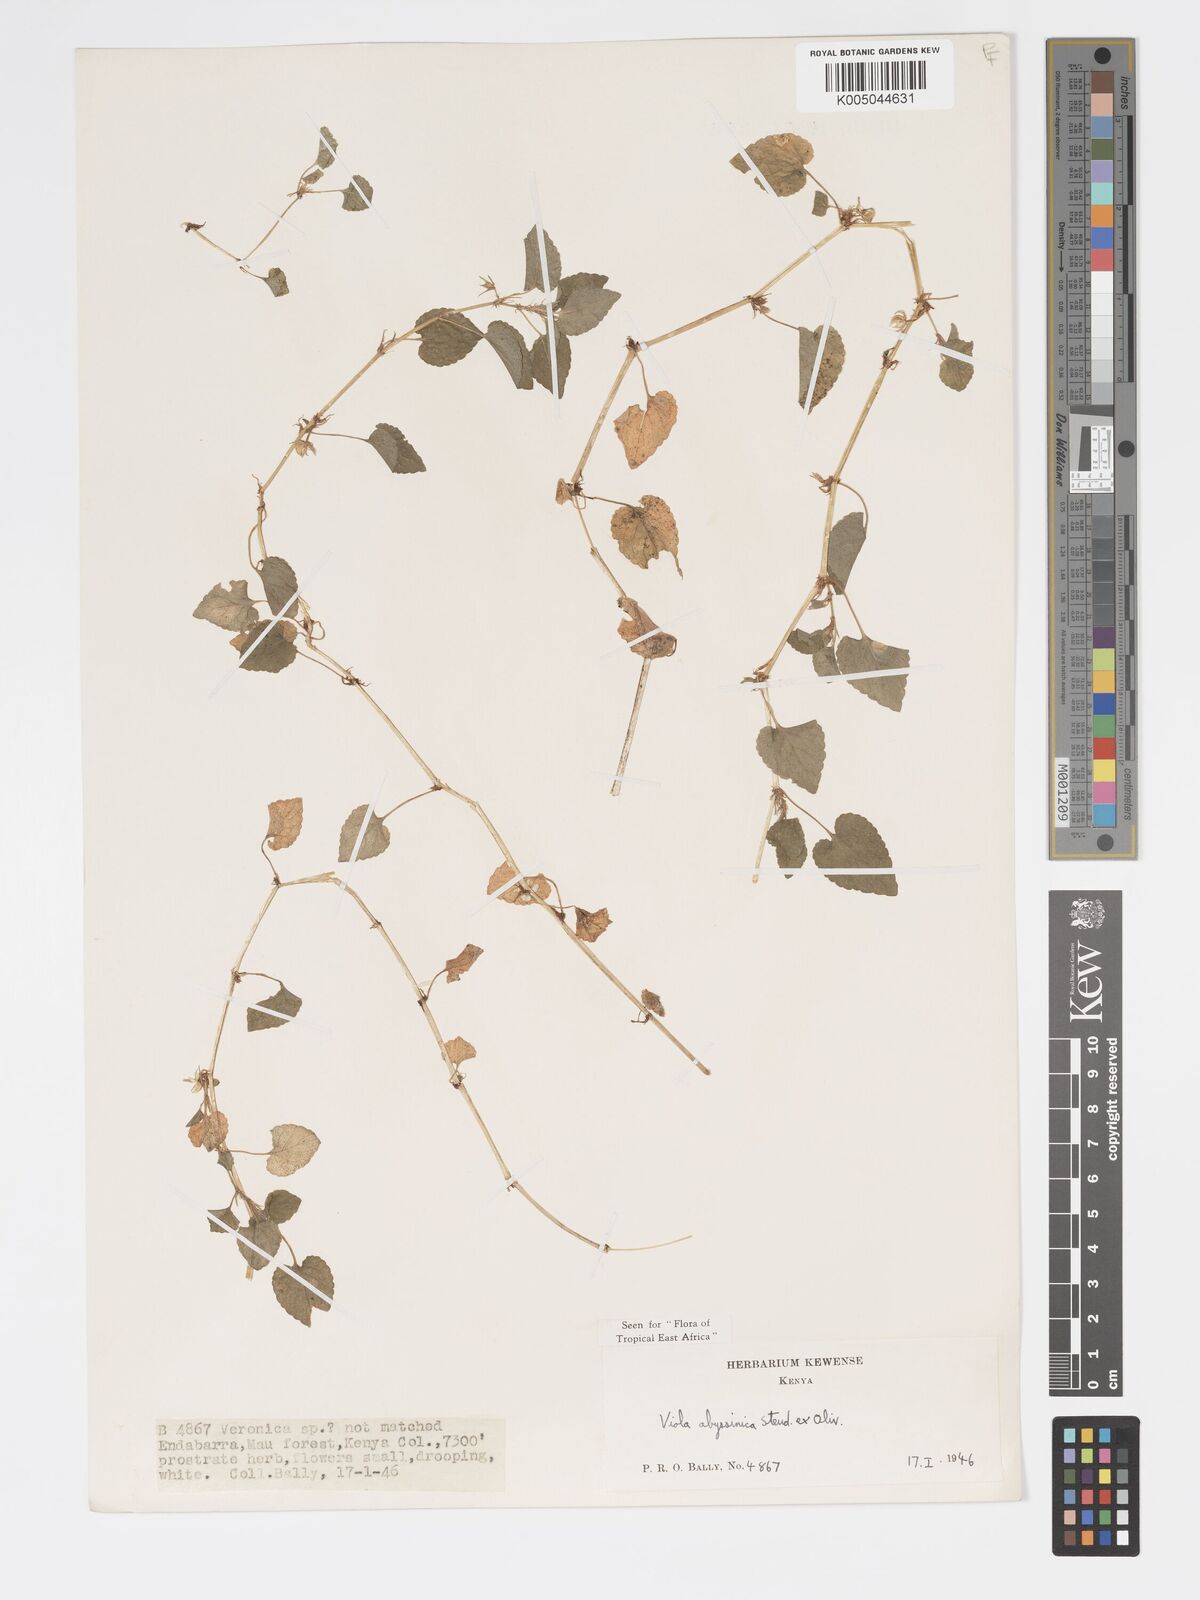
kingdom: Plantae
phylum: Tracheophyta
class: Magnoliopsida
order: Malpighiales
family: Violaceae
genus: Viola
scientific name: Viola abyssinica
